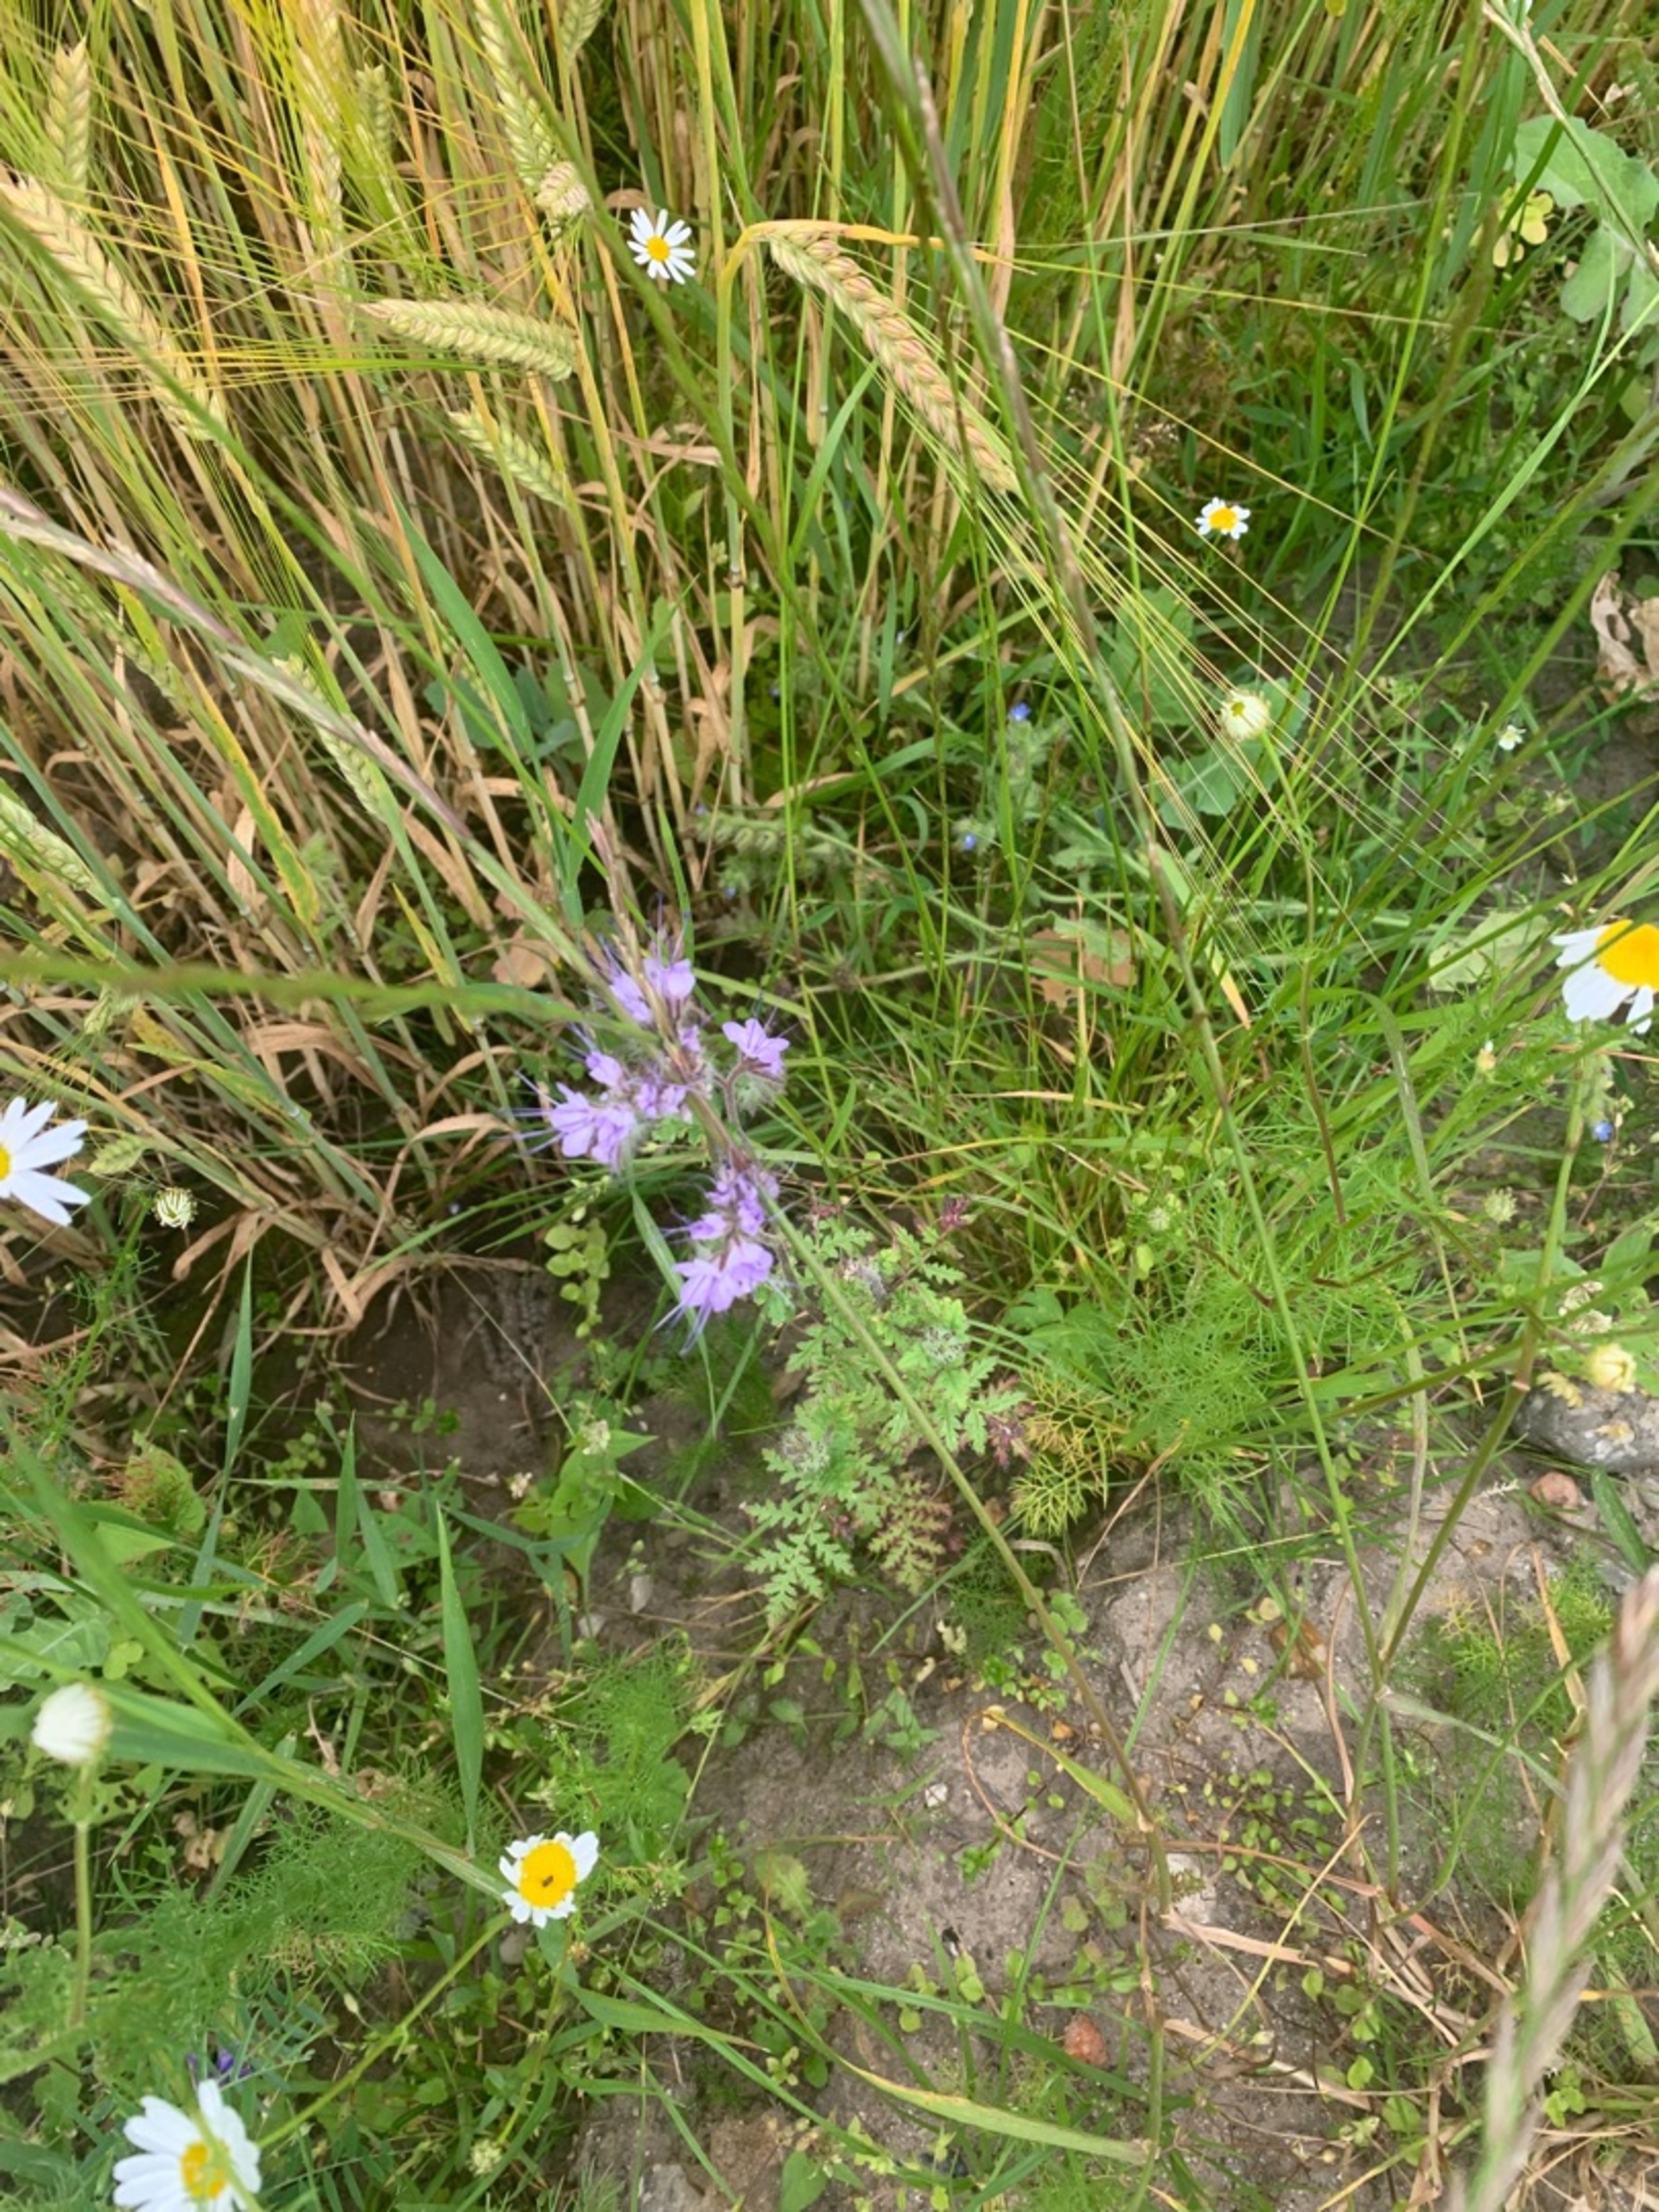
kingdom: Plantae
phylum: Tracheophyta
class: Magnoliopsida
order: Boraginales
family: Hydrophyllaceae
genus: Phacelia
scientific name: Phacelia tanacetifolia
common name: Honningurt
